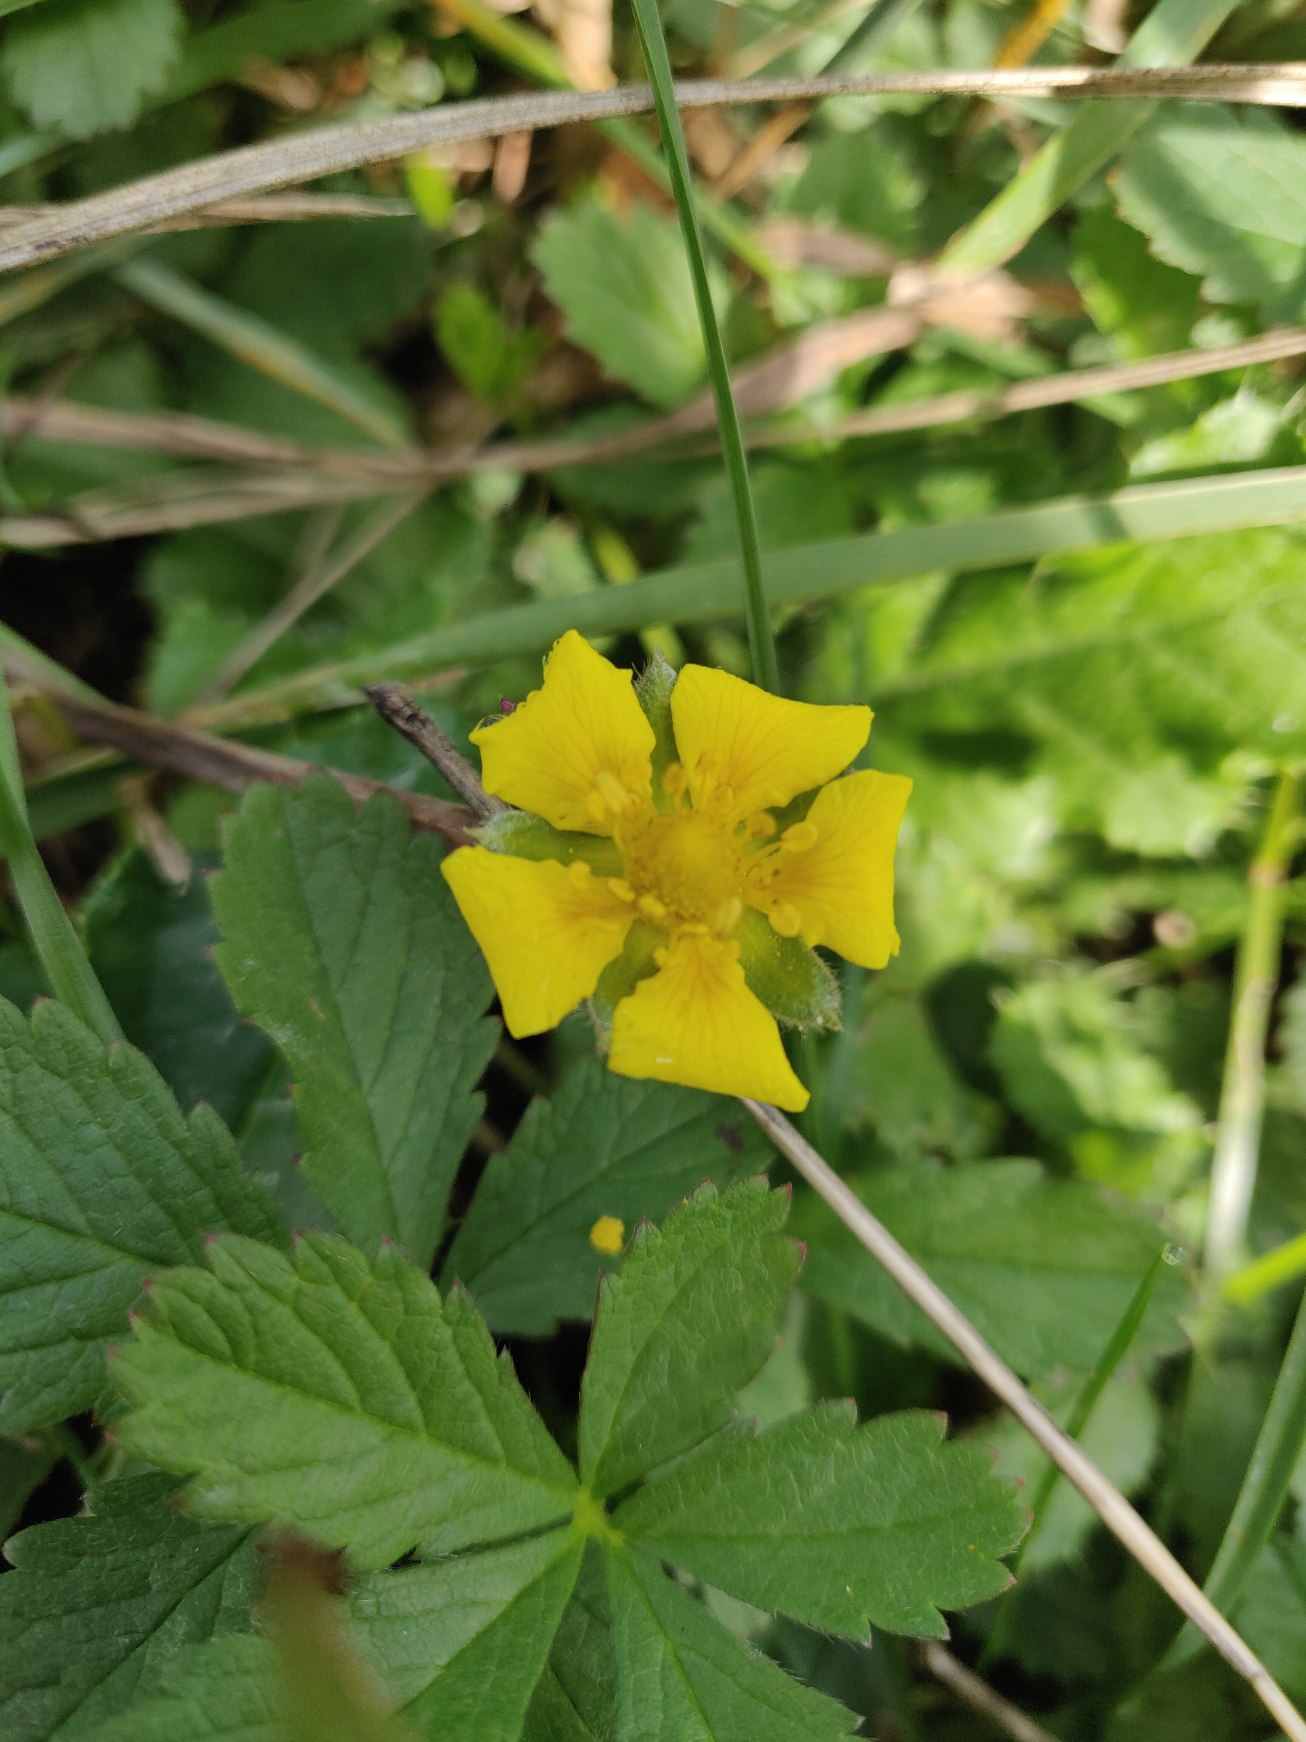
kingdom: Plantae
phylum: Tracheophyta
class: Magnoliopsida
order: Rosales
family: Rosaceae
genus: Potentilla
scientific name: Potentilla reptans
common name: Krybende potentil
